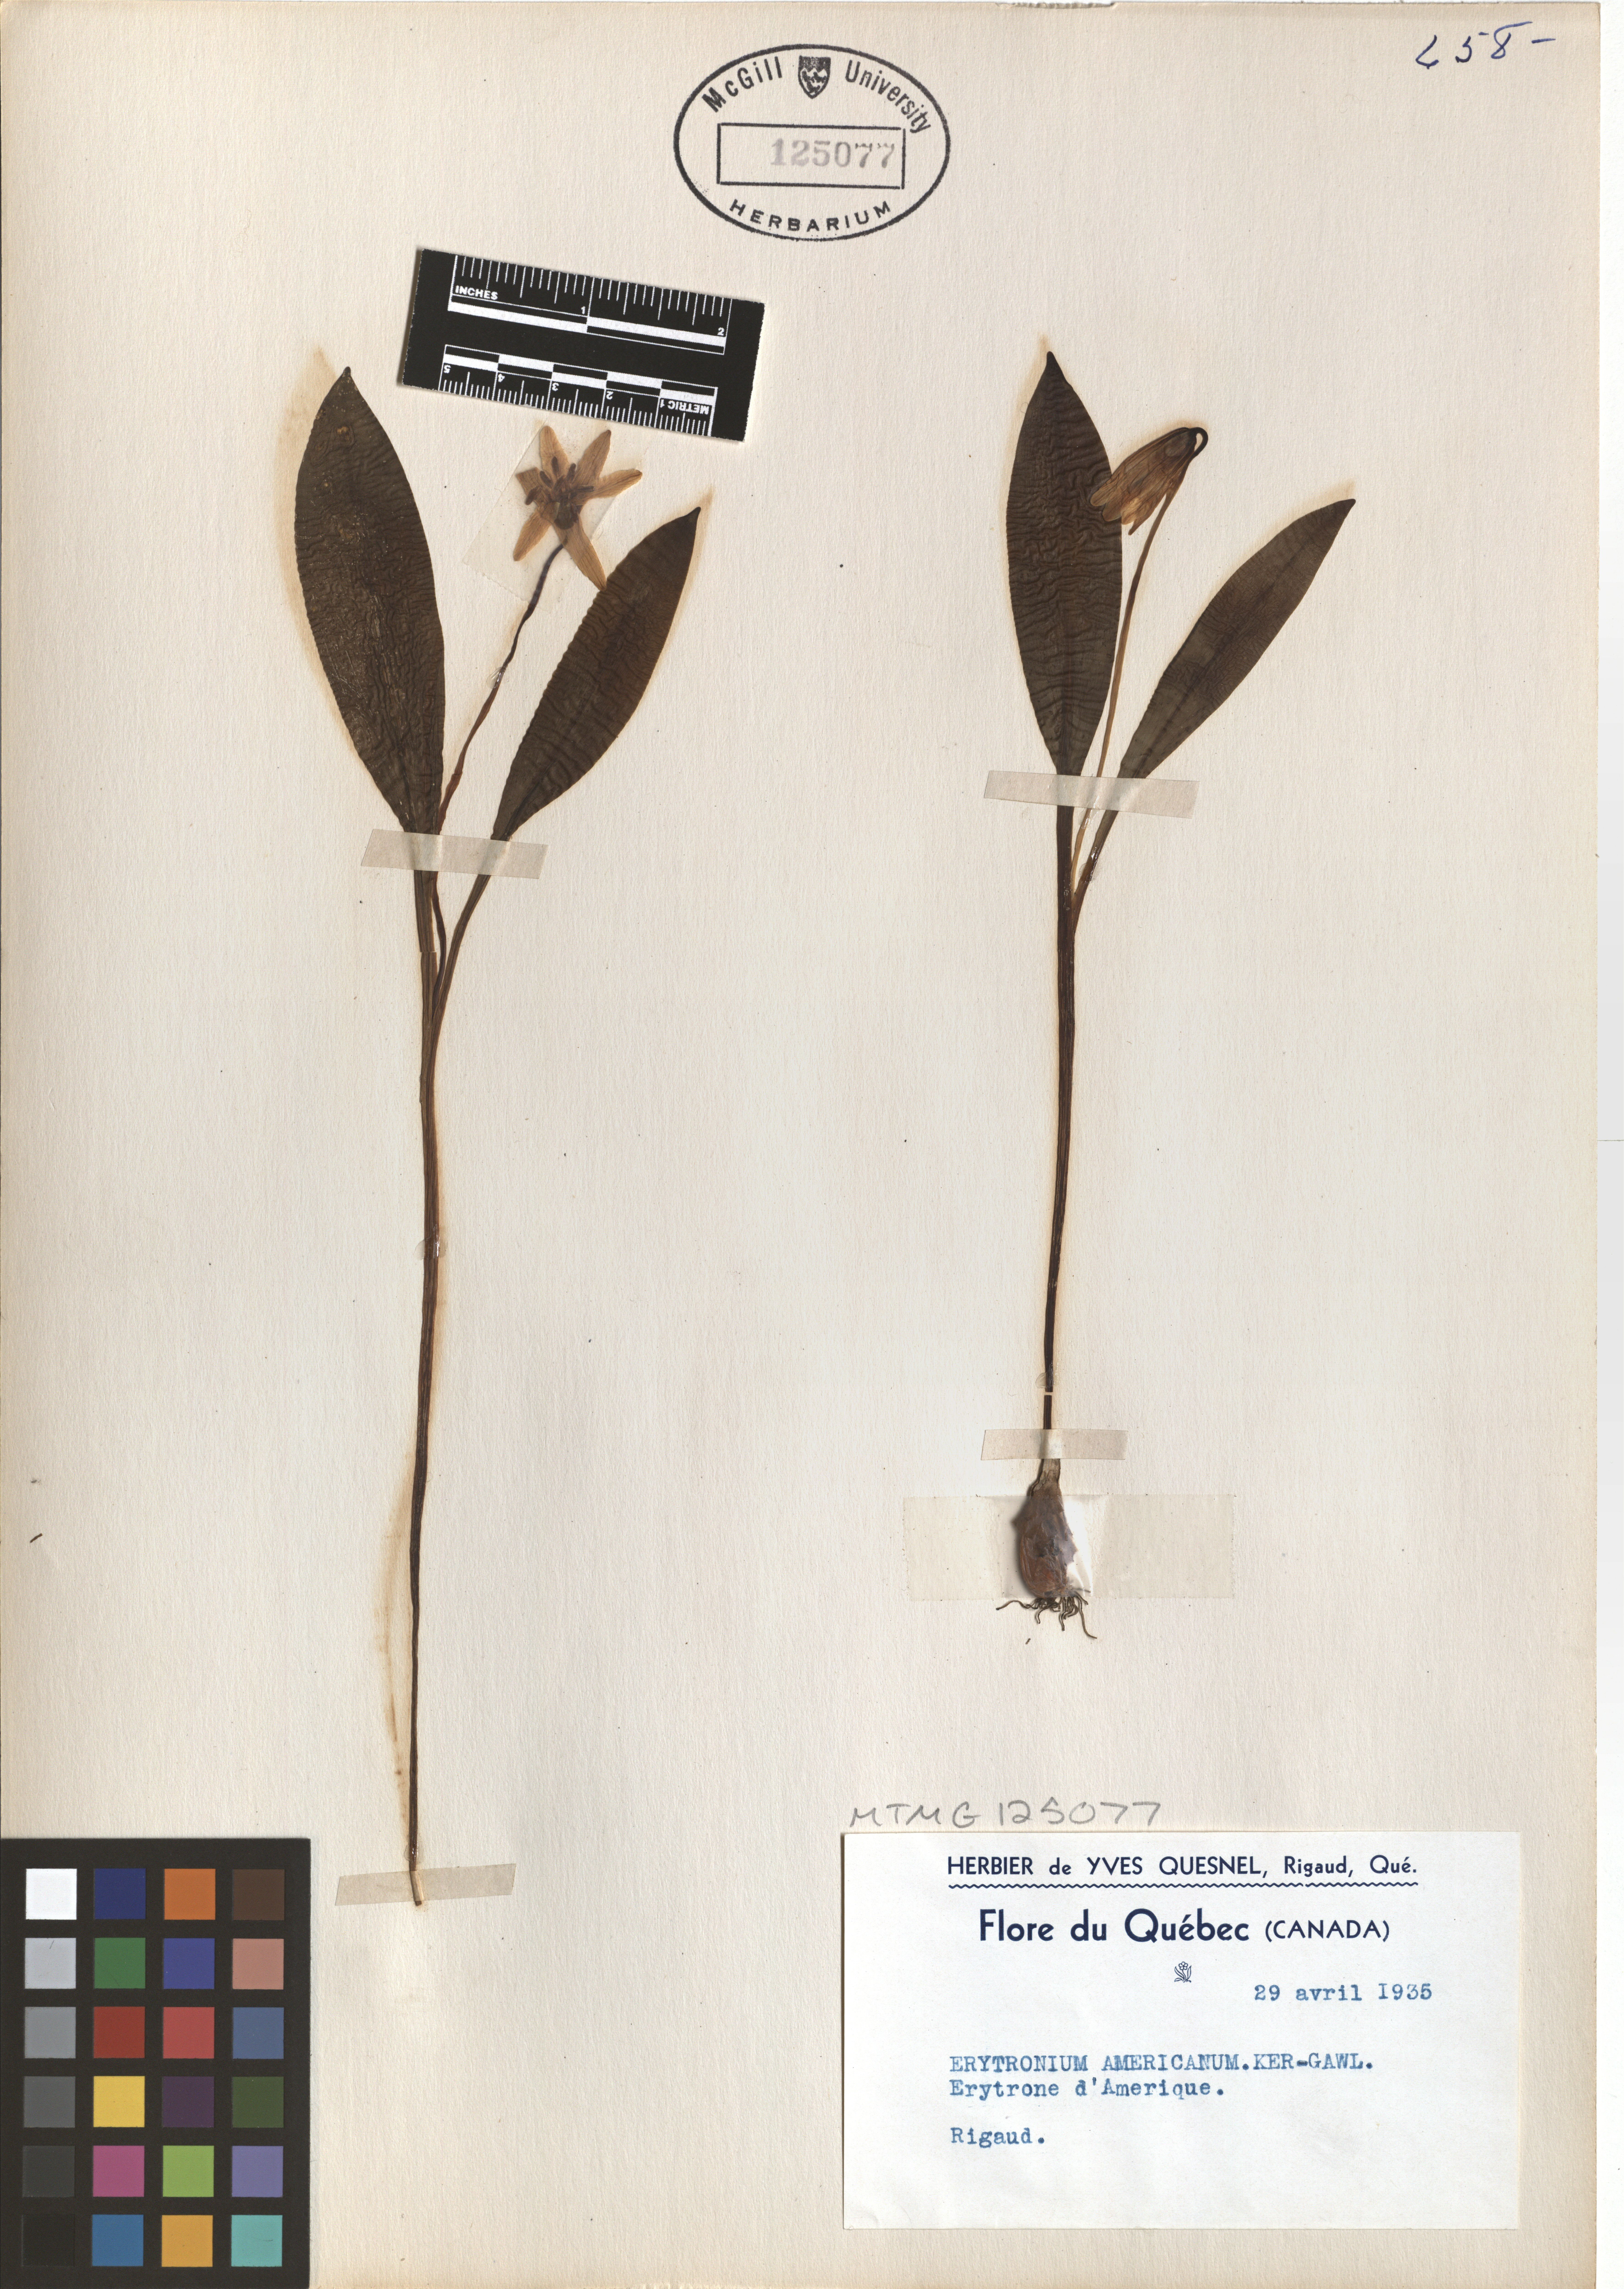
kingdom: Plantae
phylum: Tracheophyta
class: Liliopsida
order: Liliales
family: Liliaceae
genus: Erythronium
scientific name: Erythronium americanum
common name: Yellow adder's-tongue
